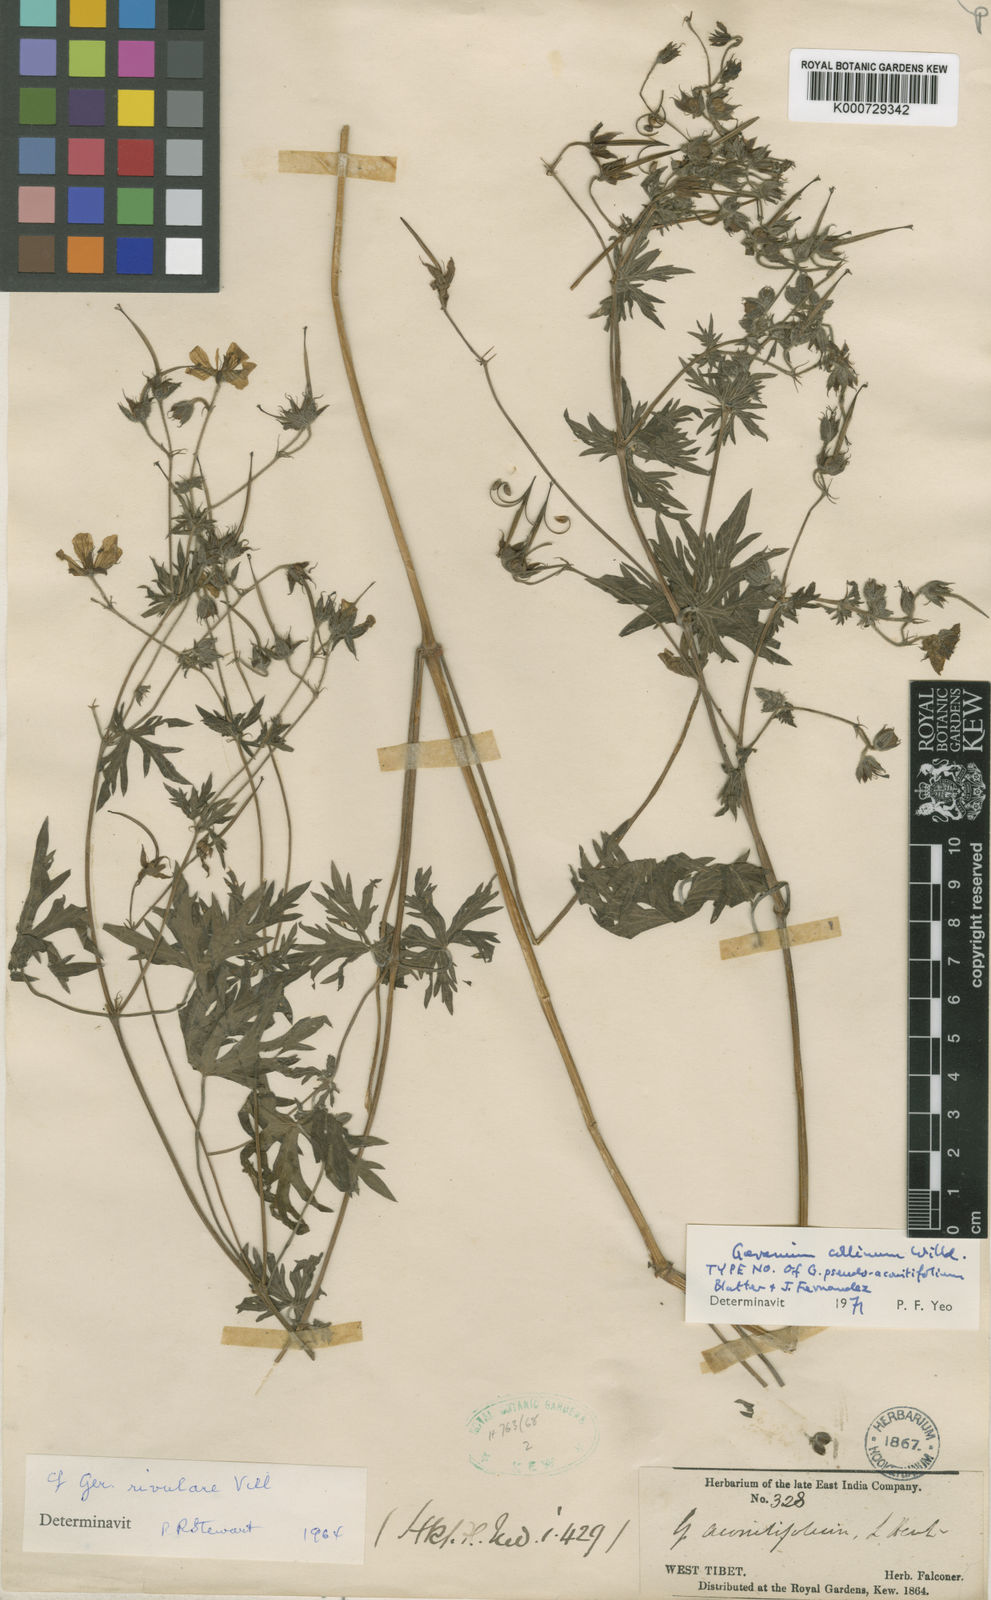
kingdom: Plantae
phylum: Tracheophyta
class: Magnoliopsida
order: Geraniales
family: Geraniaceae
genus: Geranium
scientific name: Geranium collinum
